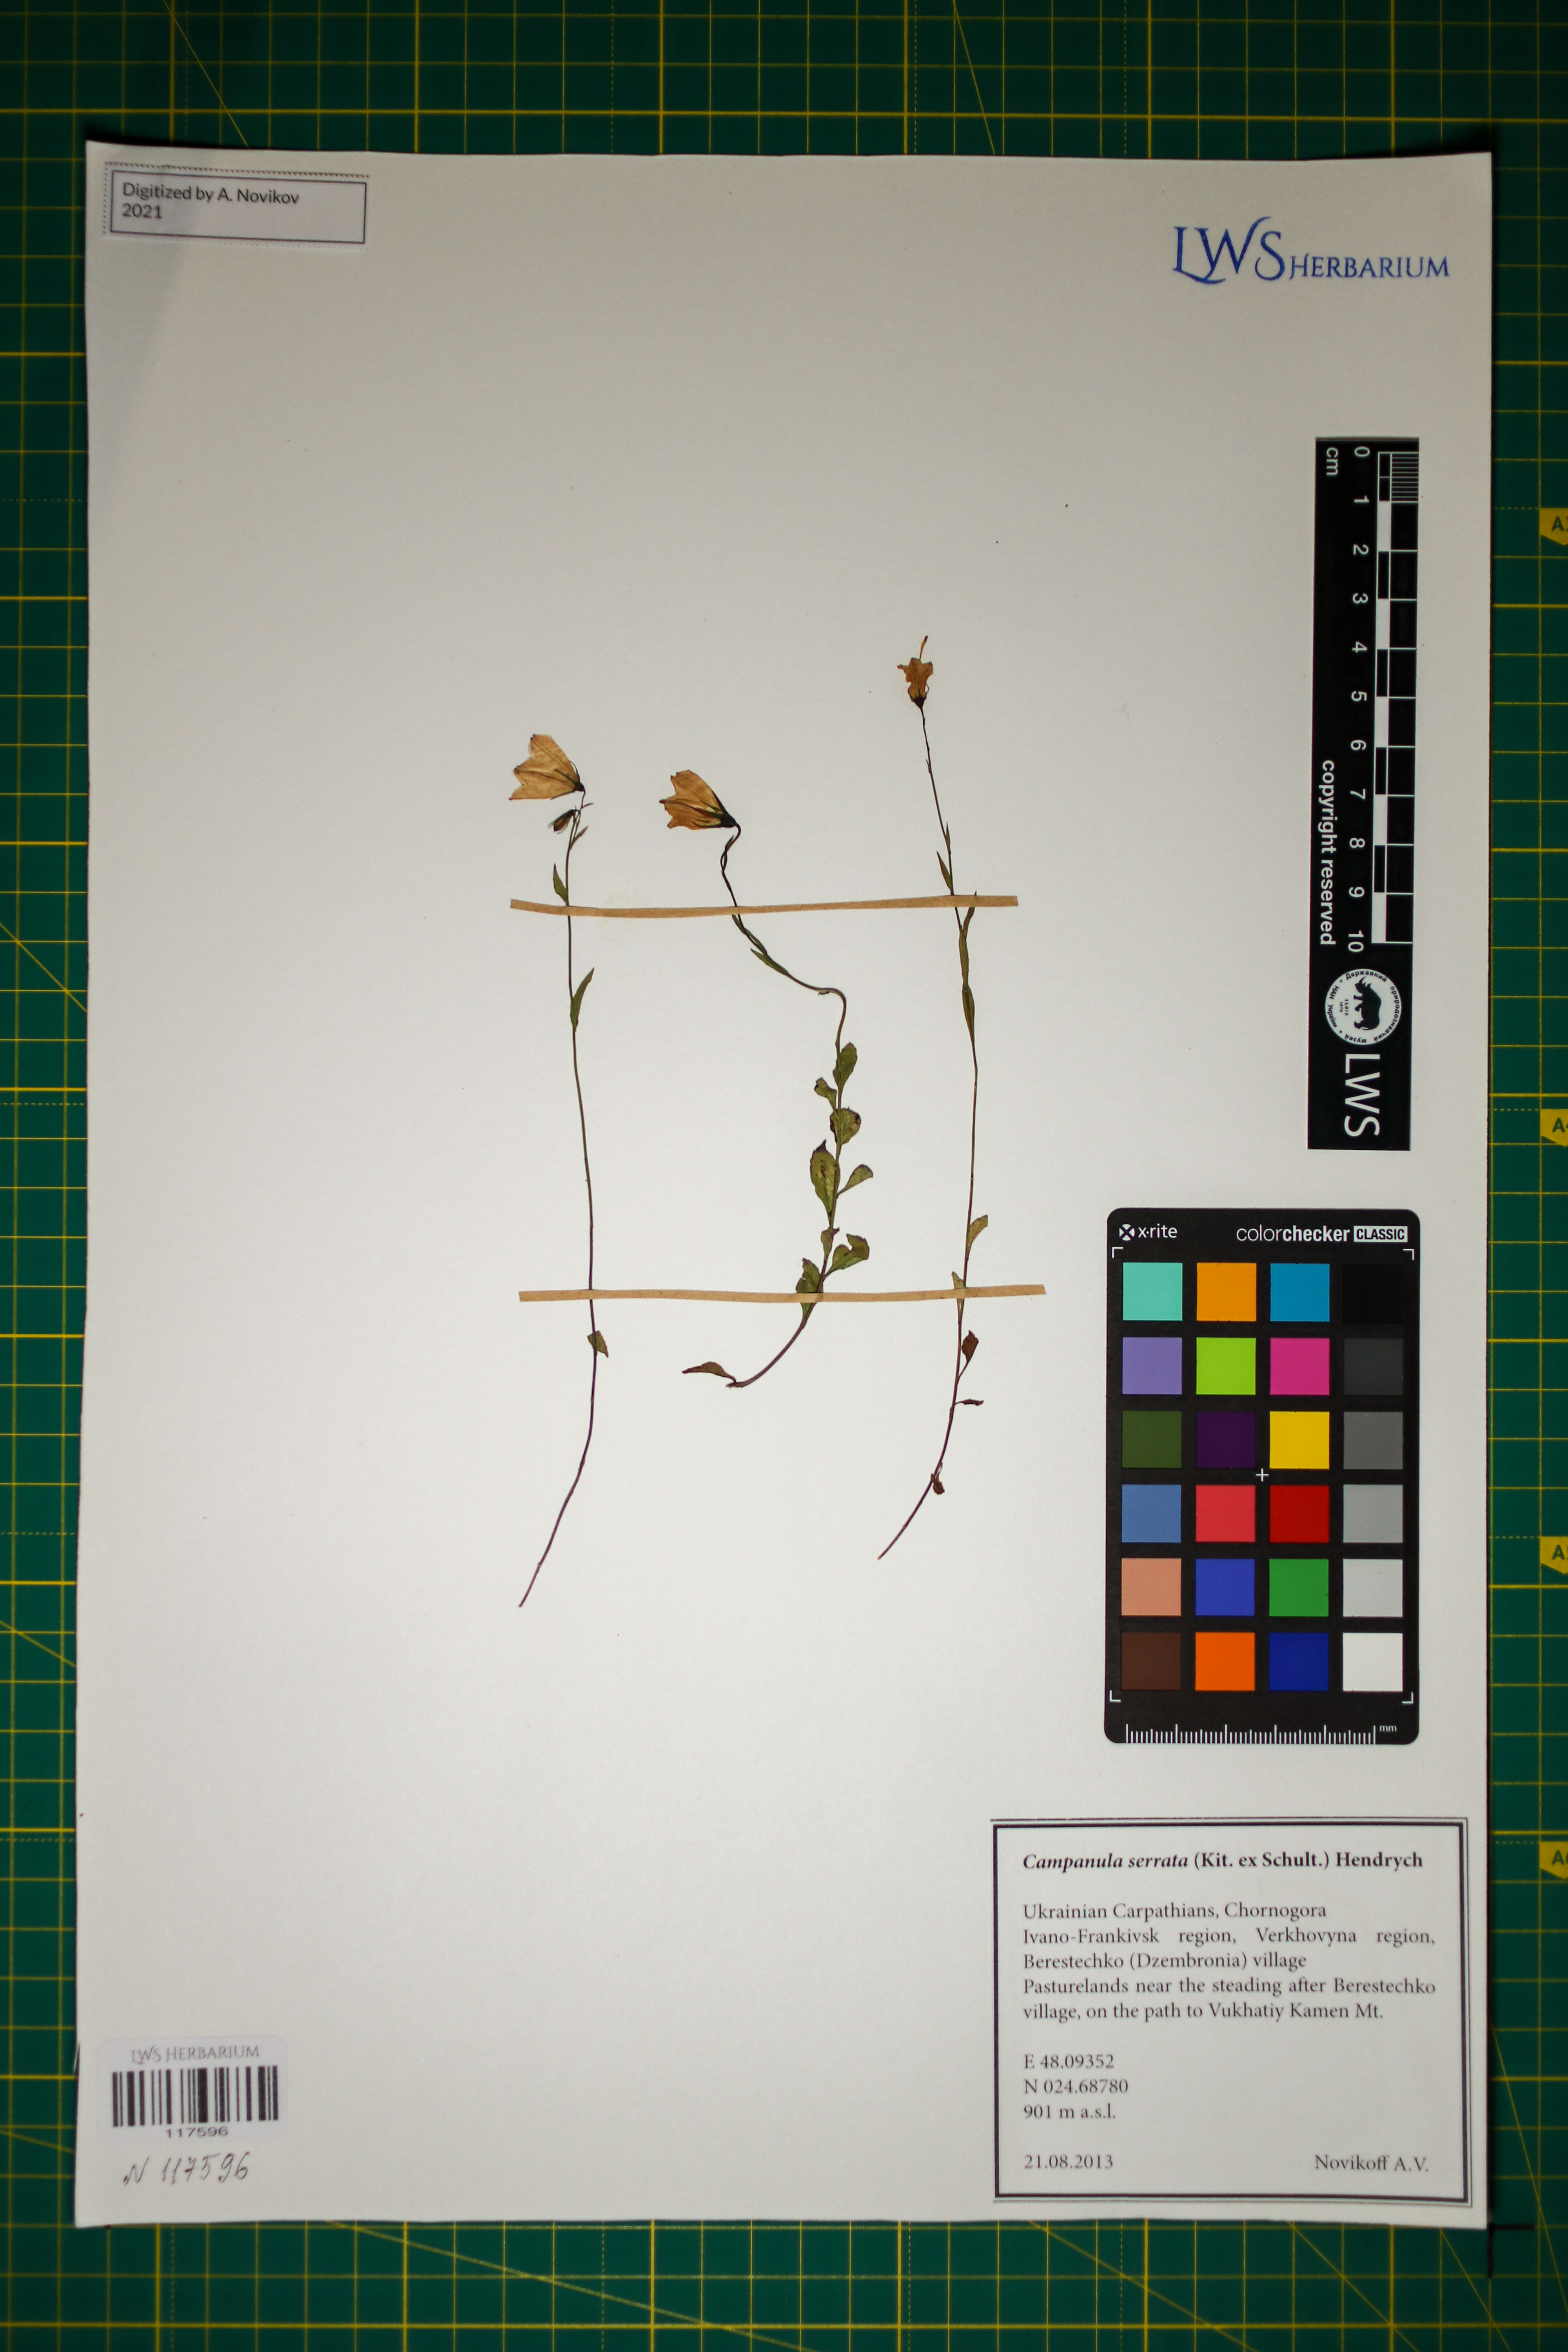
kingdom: Plantae
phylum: Tracheophyta
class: Magnoliopsida
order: Asterales
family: Campanulaceae
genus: Campanula
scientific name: Campanula serrata
